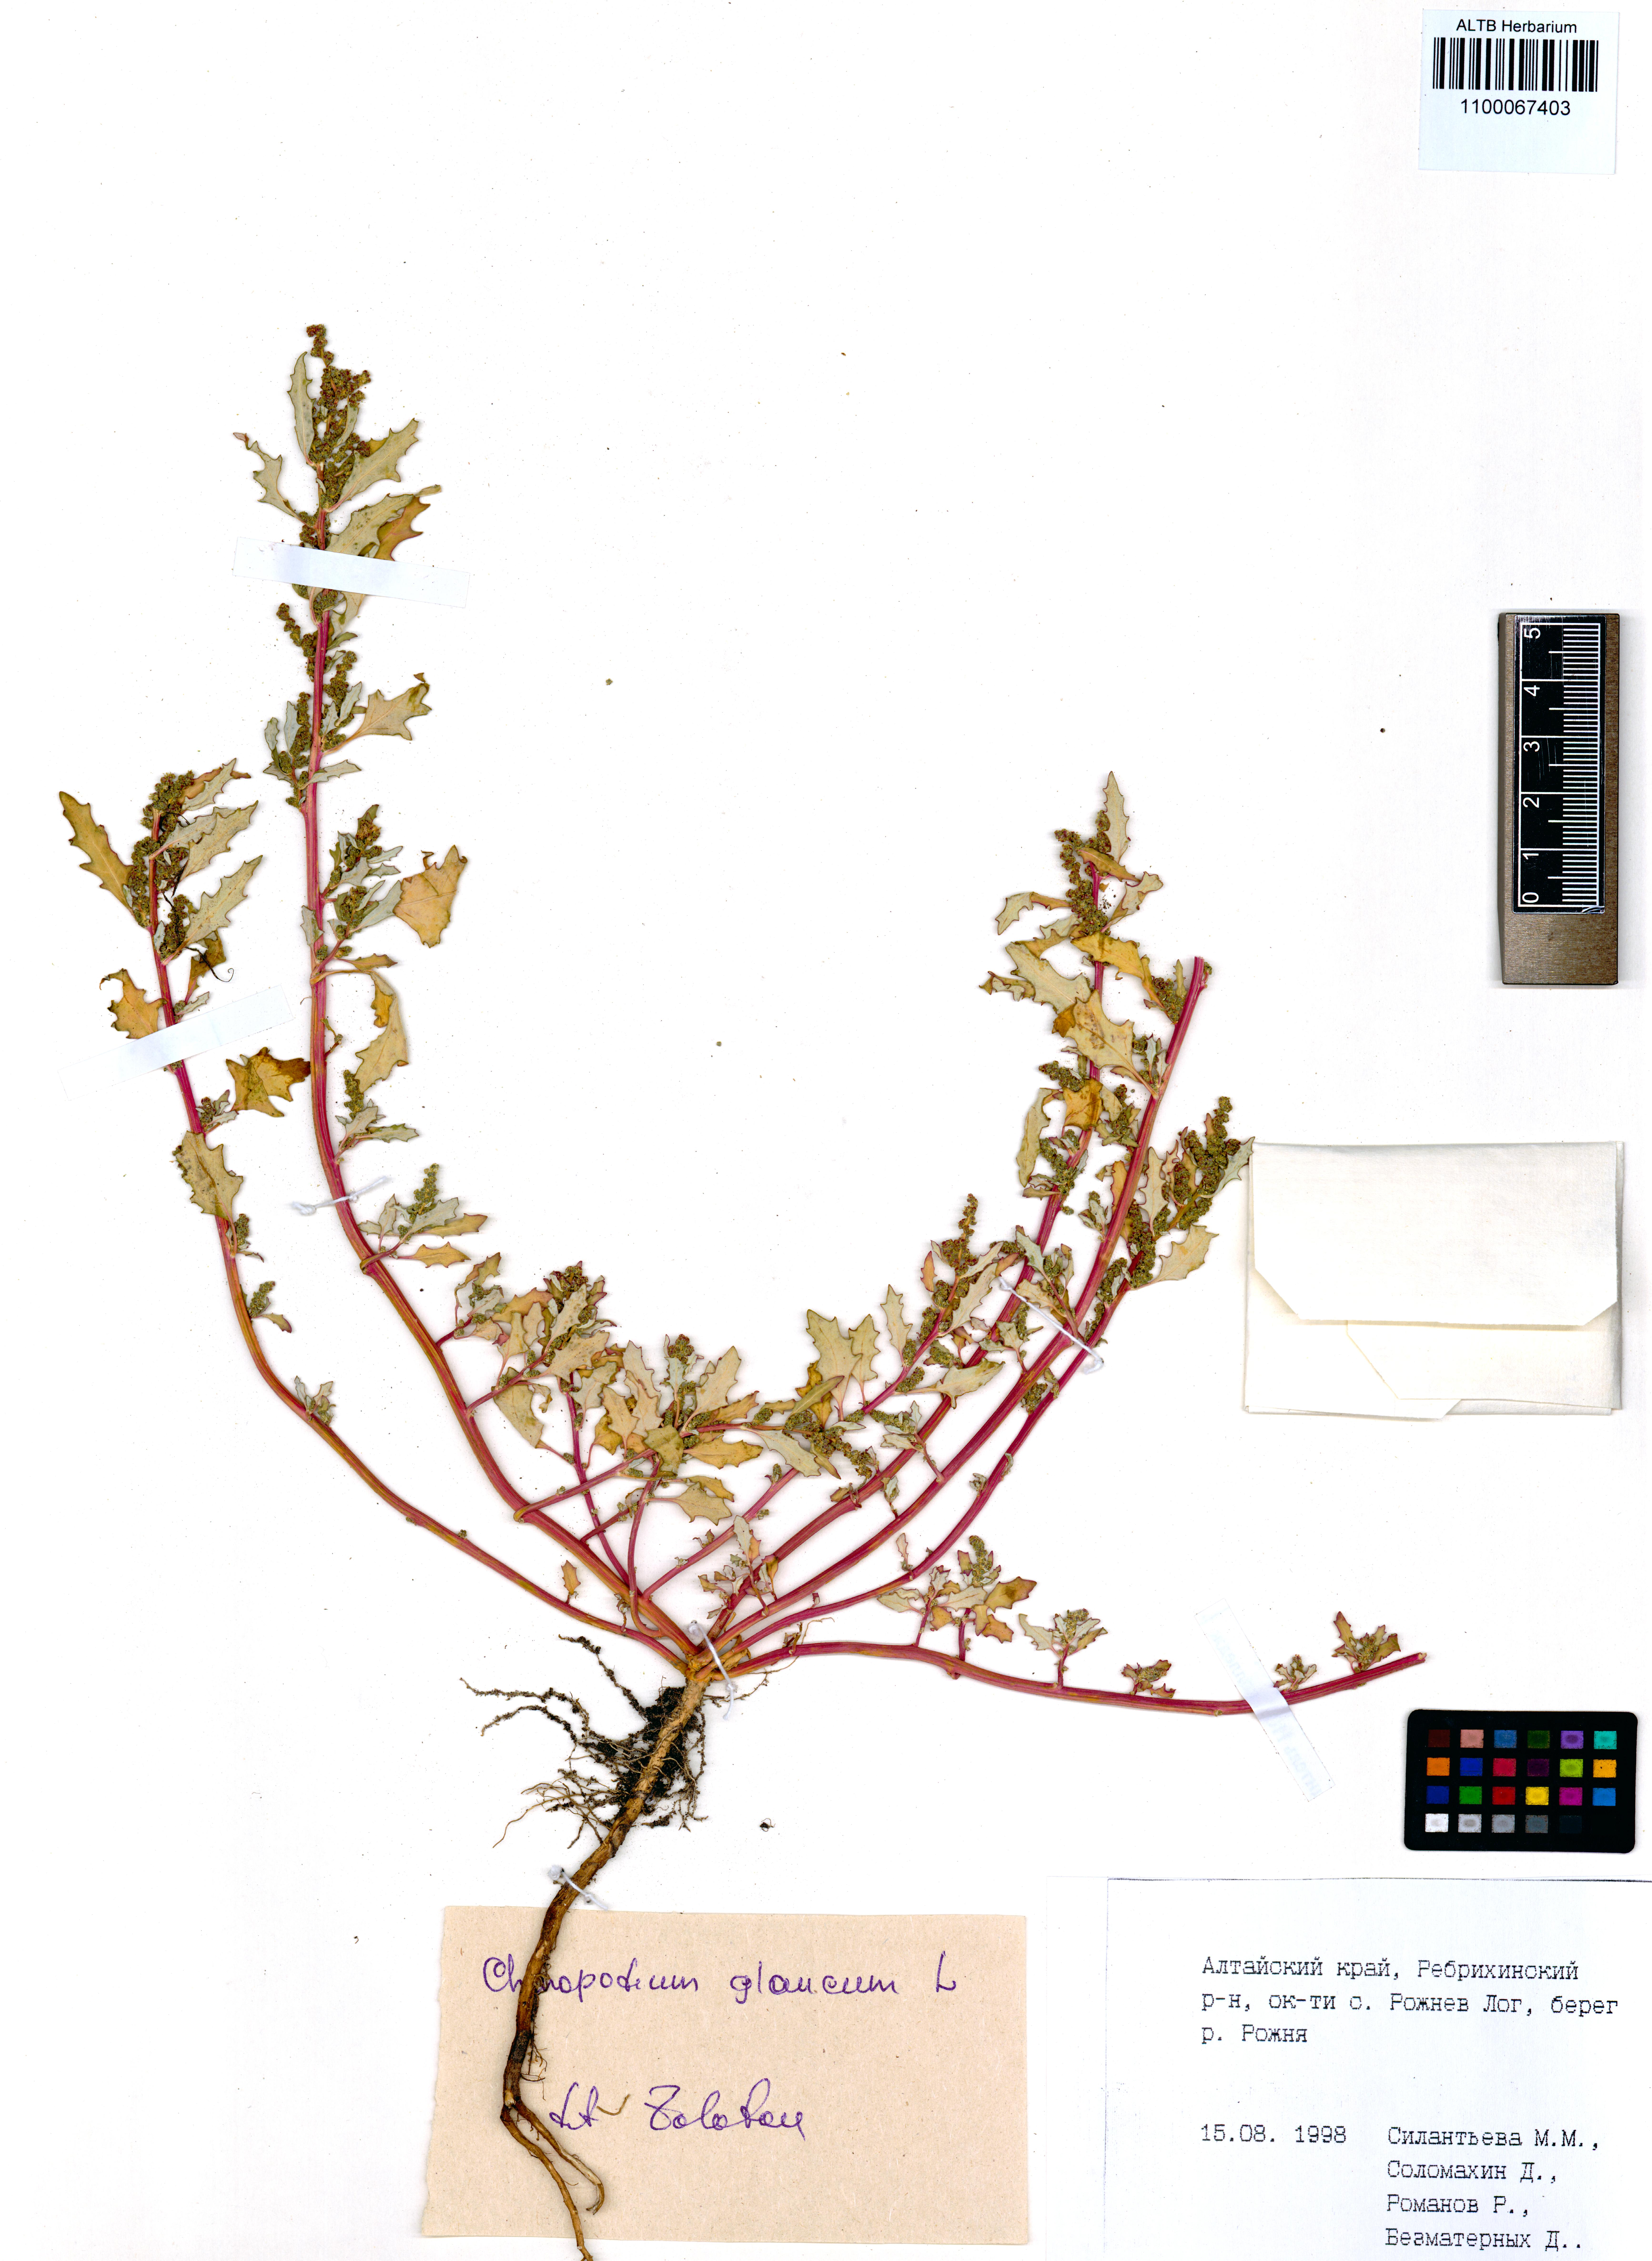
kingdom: Plantae
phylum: Tracheophyta
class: Magnoliopsida
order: Caryophyllales
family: Amaranthaceae
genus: Oxybasis
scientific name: Oxybasis glauca
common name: Glaucous goosefoot
